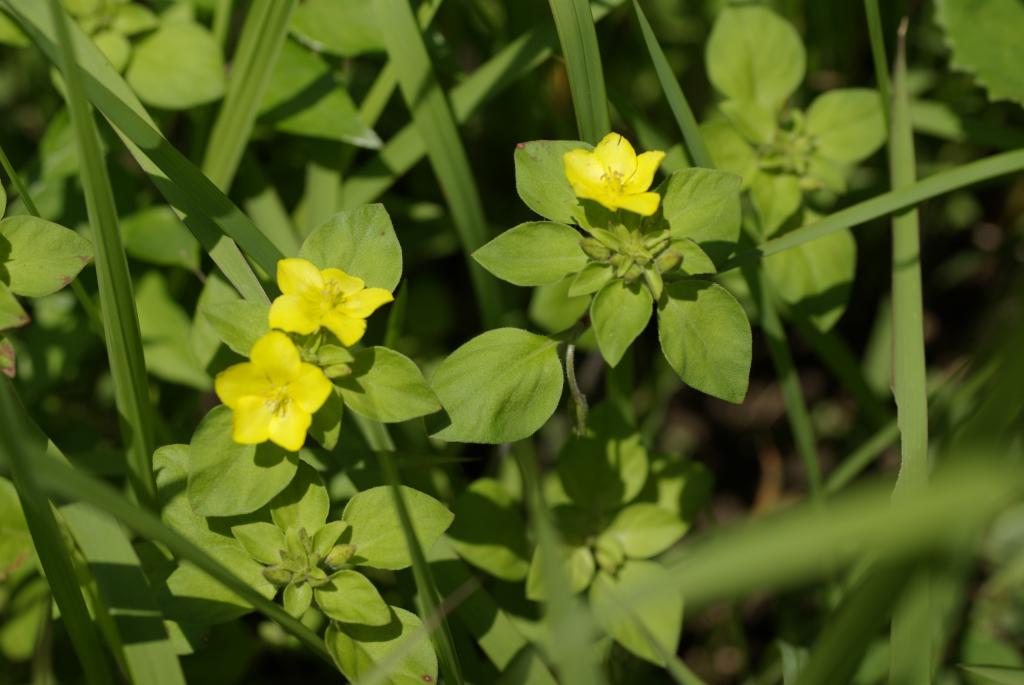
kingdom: Plantae
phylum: Tracheophyta
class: Magnoliopsida
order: Ericales
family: Primulaceae
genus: Lysimachia
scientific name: Lysimachia remota
